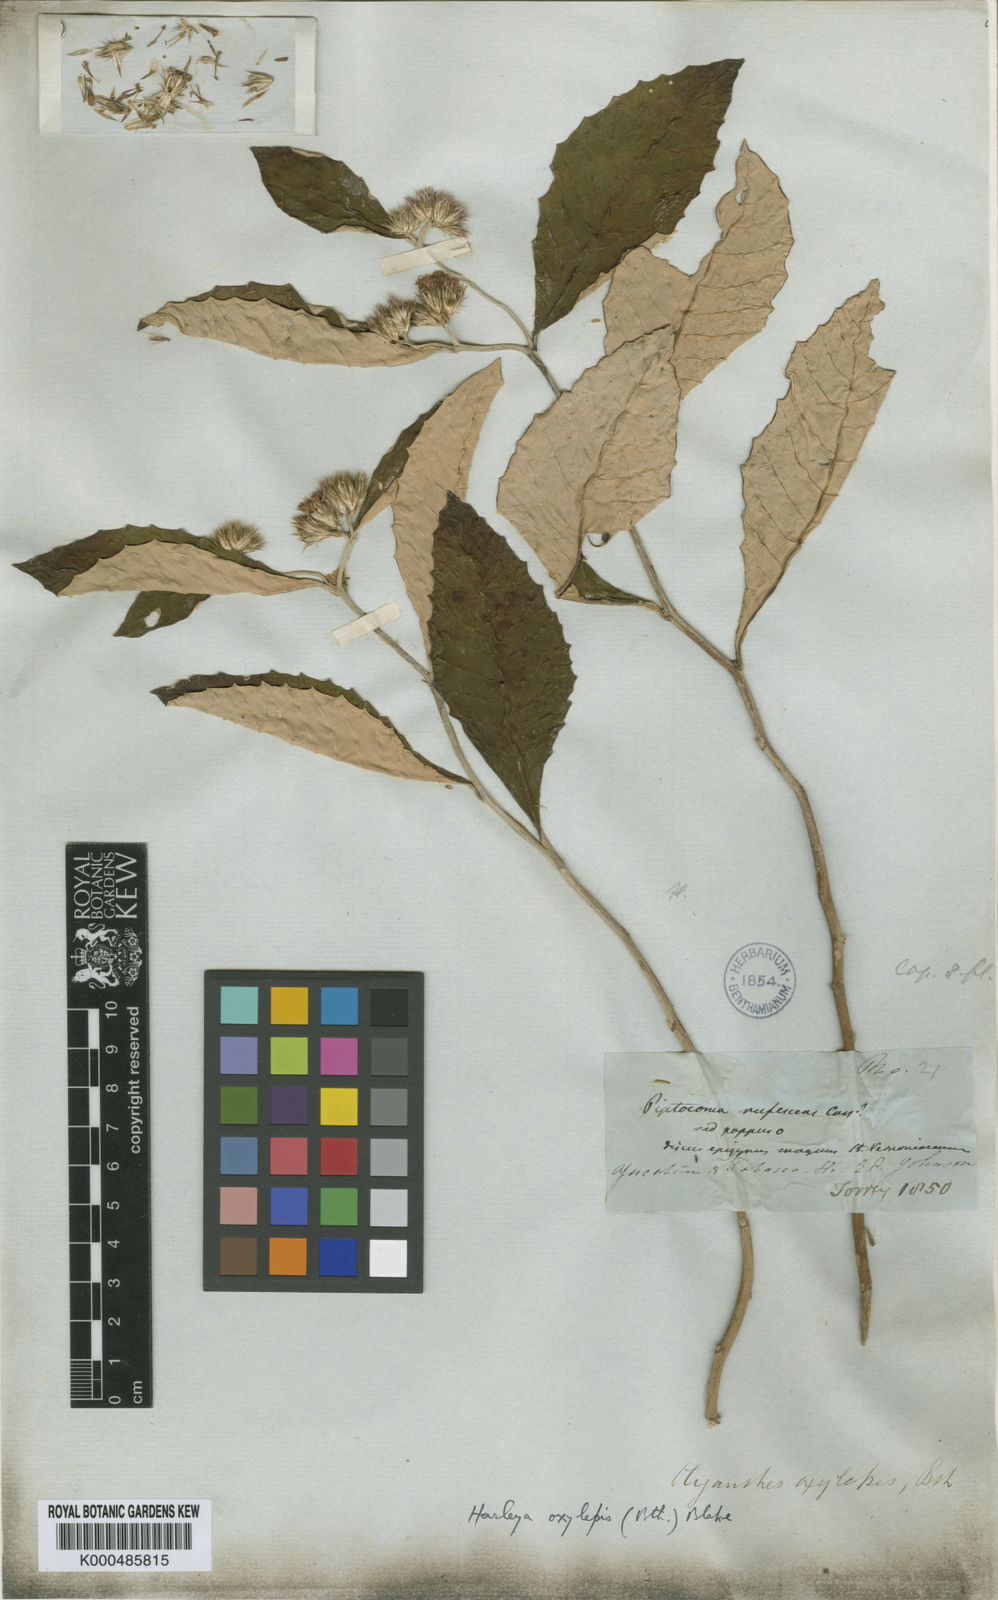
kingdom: Plantae
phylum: Tracheophyta
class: Magnoliopsida
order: Asterales
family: Asteraceae
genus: Harleya
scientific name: Harleya oxylepis
